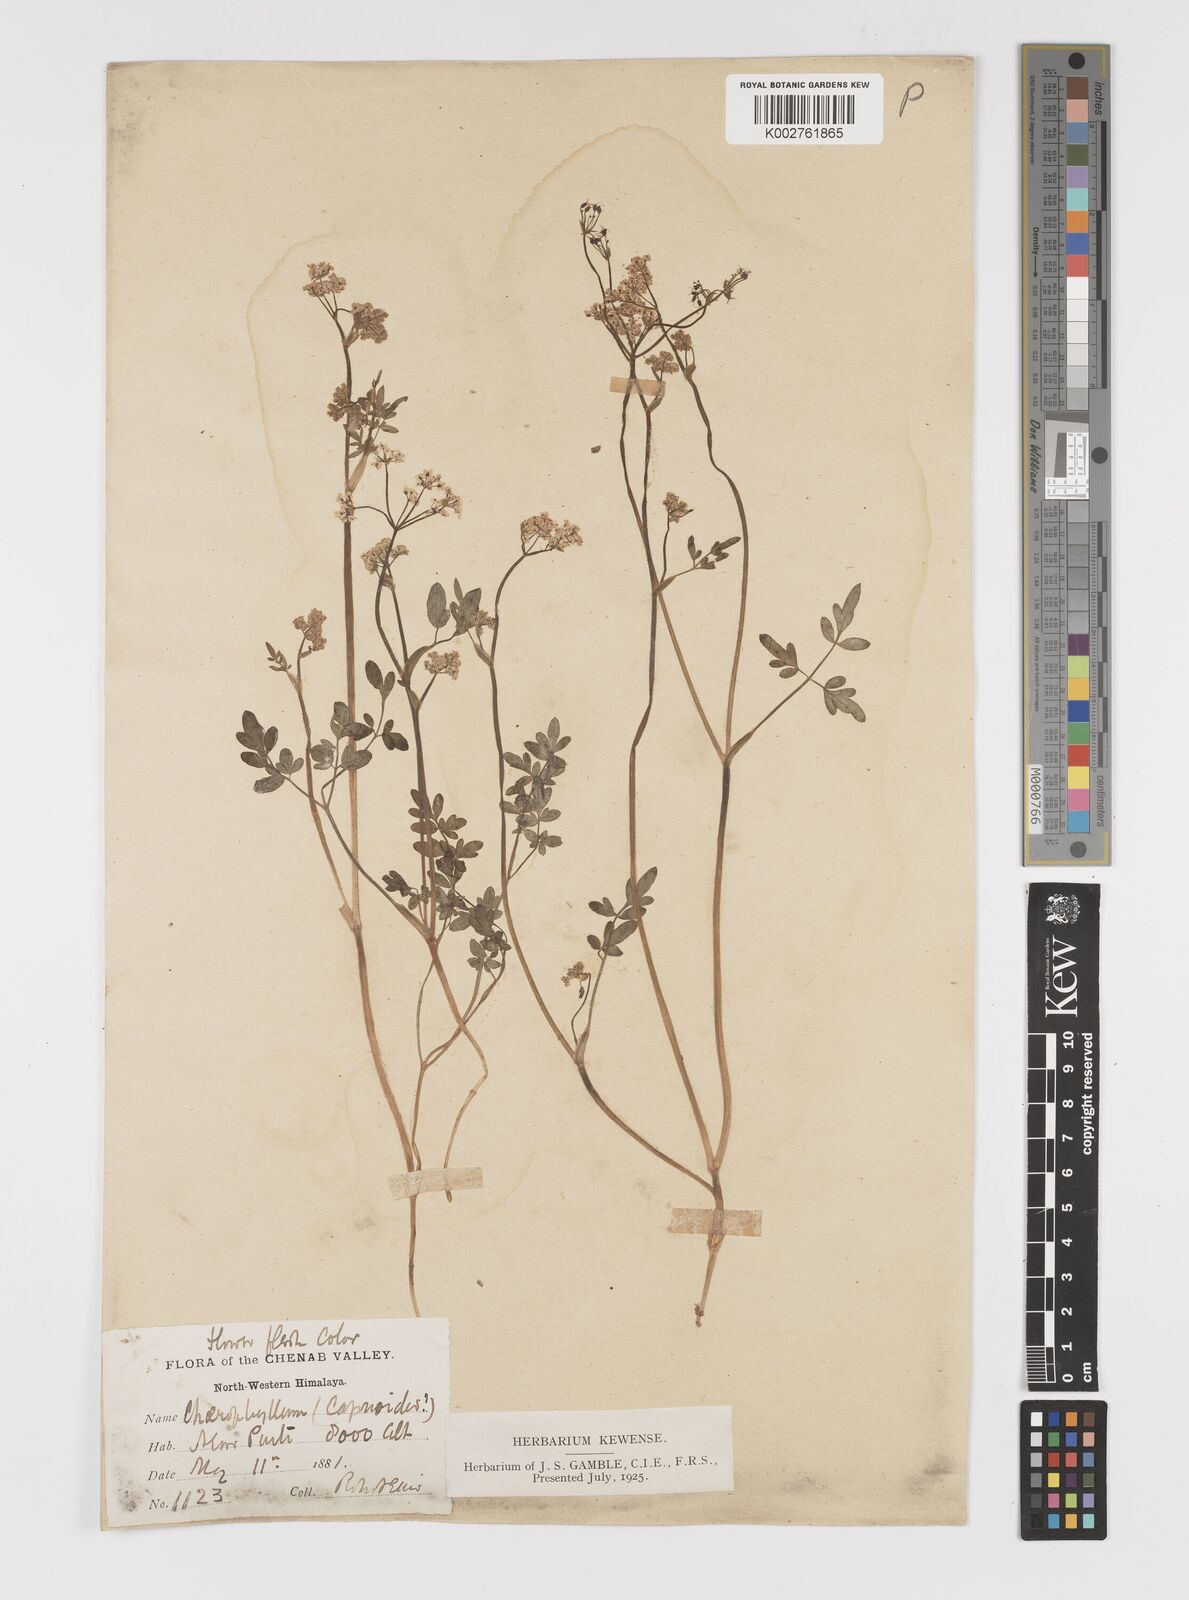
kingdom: Plantae
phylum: Tracheophyta
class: Magnoliopsida
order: Apiales
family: Apiaceae
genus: Chaerophyllum
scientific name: Chaerophyllum
